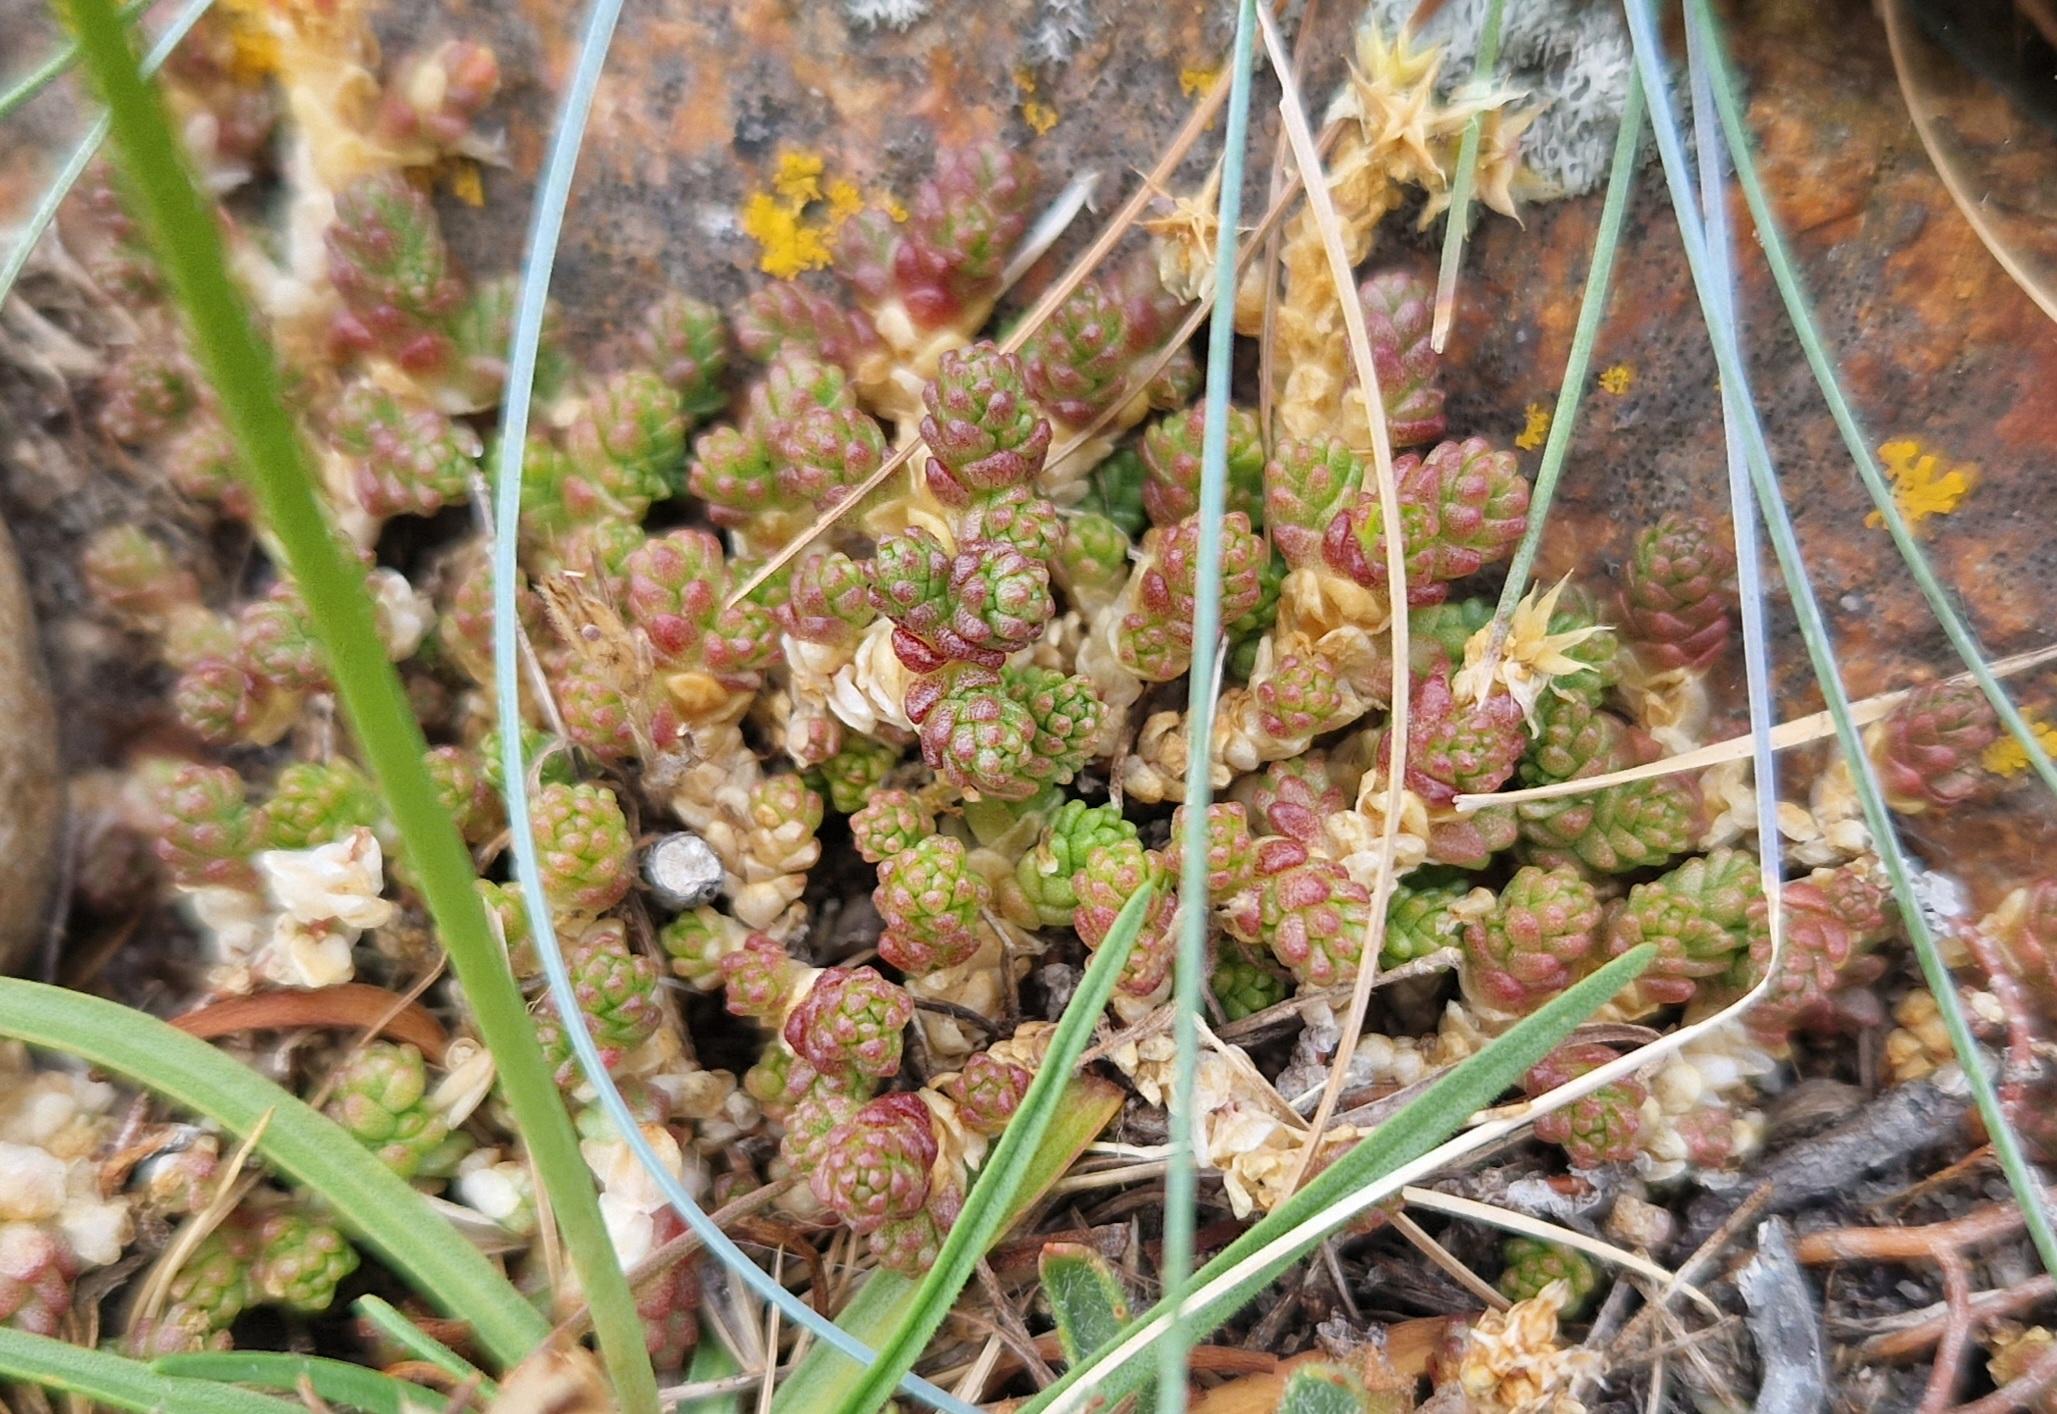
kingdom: Plantae
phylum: Tracheophyta
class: Magnoliopsida
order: Saxifragales
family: Crassulaceae
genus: Sedum
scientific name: Sedum acre
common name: Bidende stenurt
